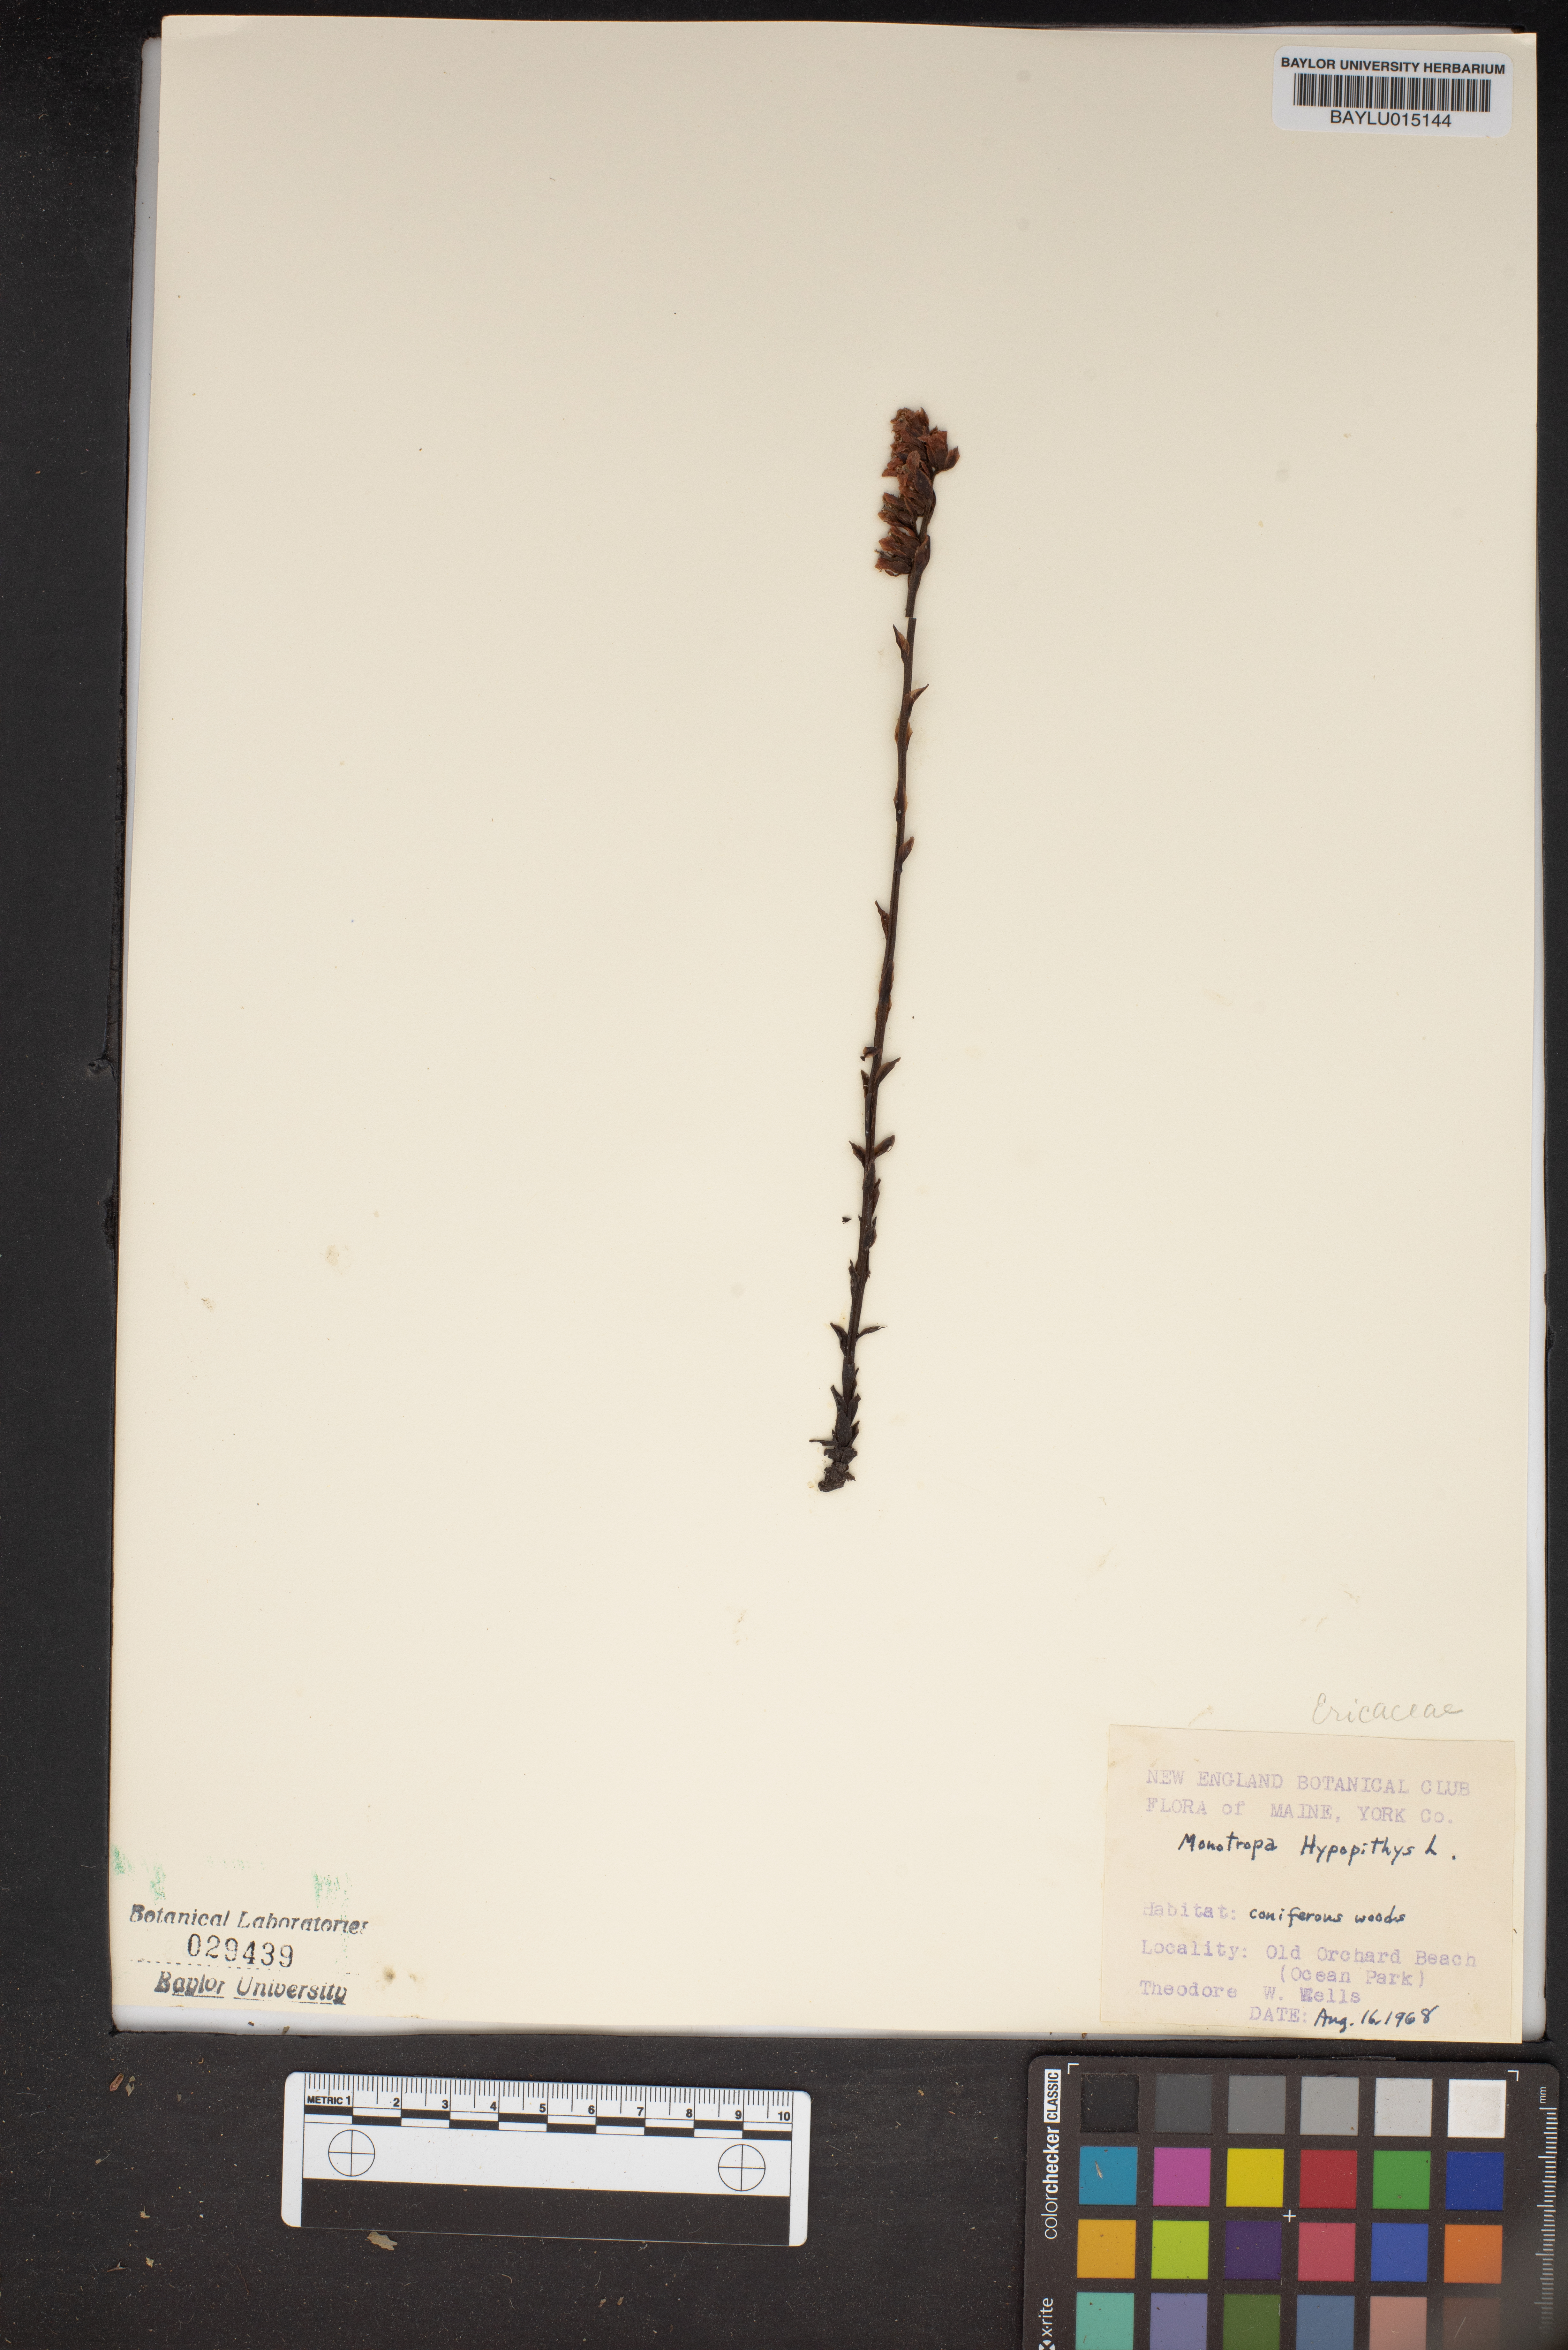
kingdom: Plantae
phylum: Tracheophyta
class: Magnoliopsida
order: Ericales
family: Ericaceae
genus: Hypopitys
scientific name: Hypopitys monotropa
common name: Yellow bird's-nest
